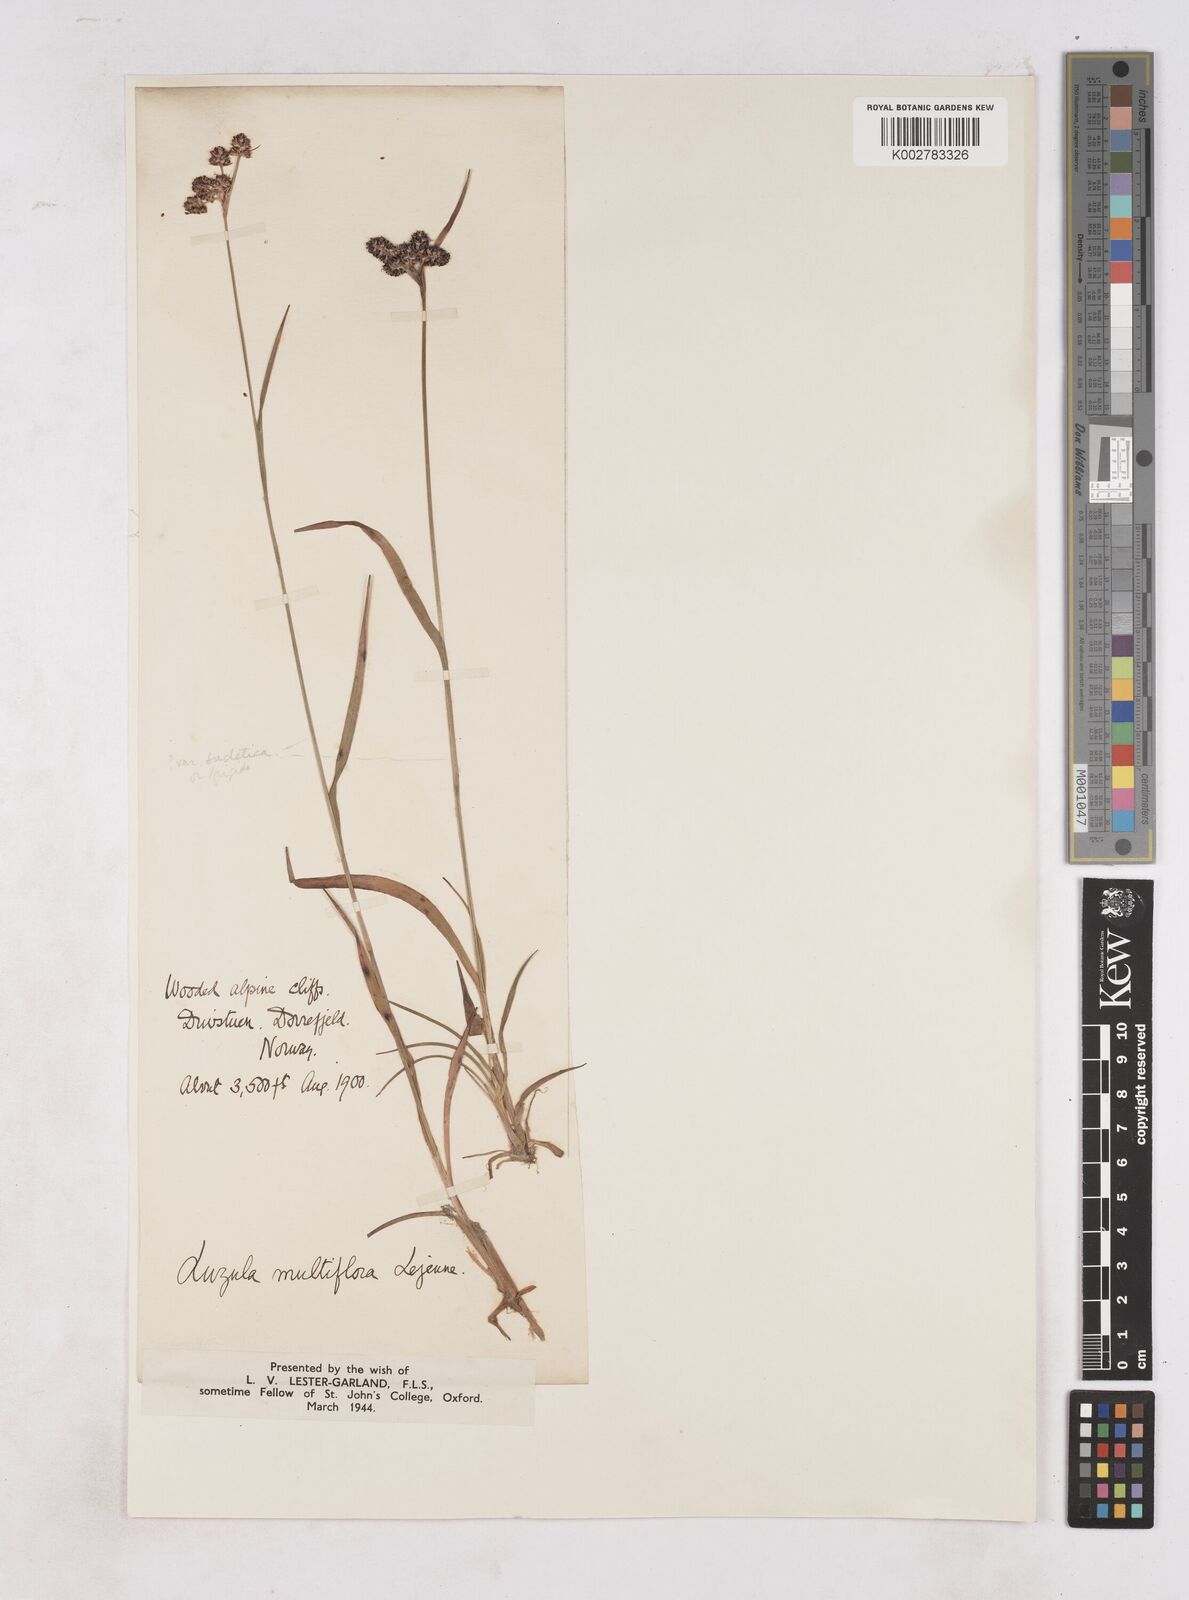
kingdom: Plantae
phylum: Tracheophyta
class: Liliopsida
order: Poales
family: Juncaceae
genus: Luzula
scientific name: Luzula multiflora
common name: Heath wood-rush
